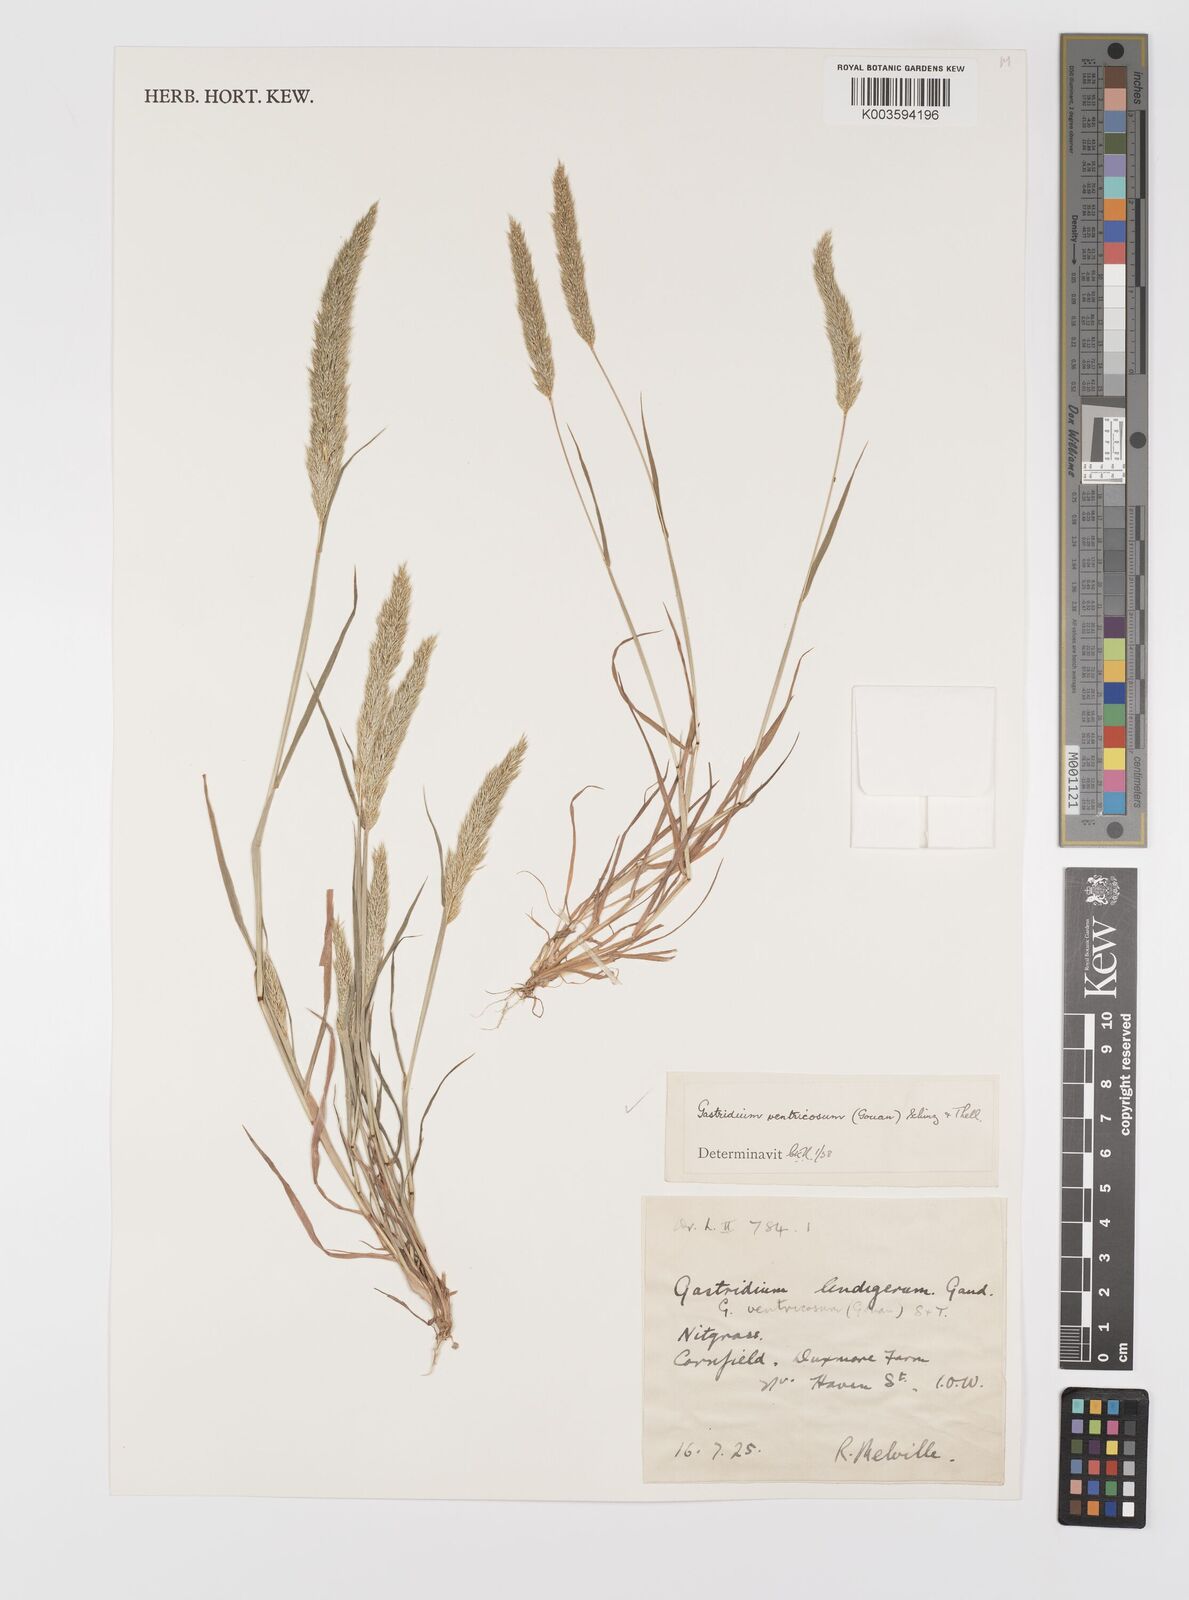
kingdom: Plantae
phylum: Tracheophyta
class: Liliopsida
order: Poales
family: Poaceae
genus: Gastridium
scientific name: Gastridium ventricosum
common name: Nit-grass
